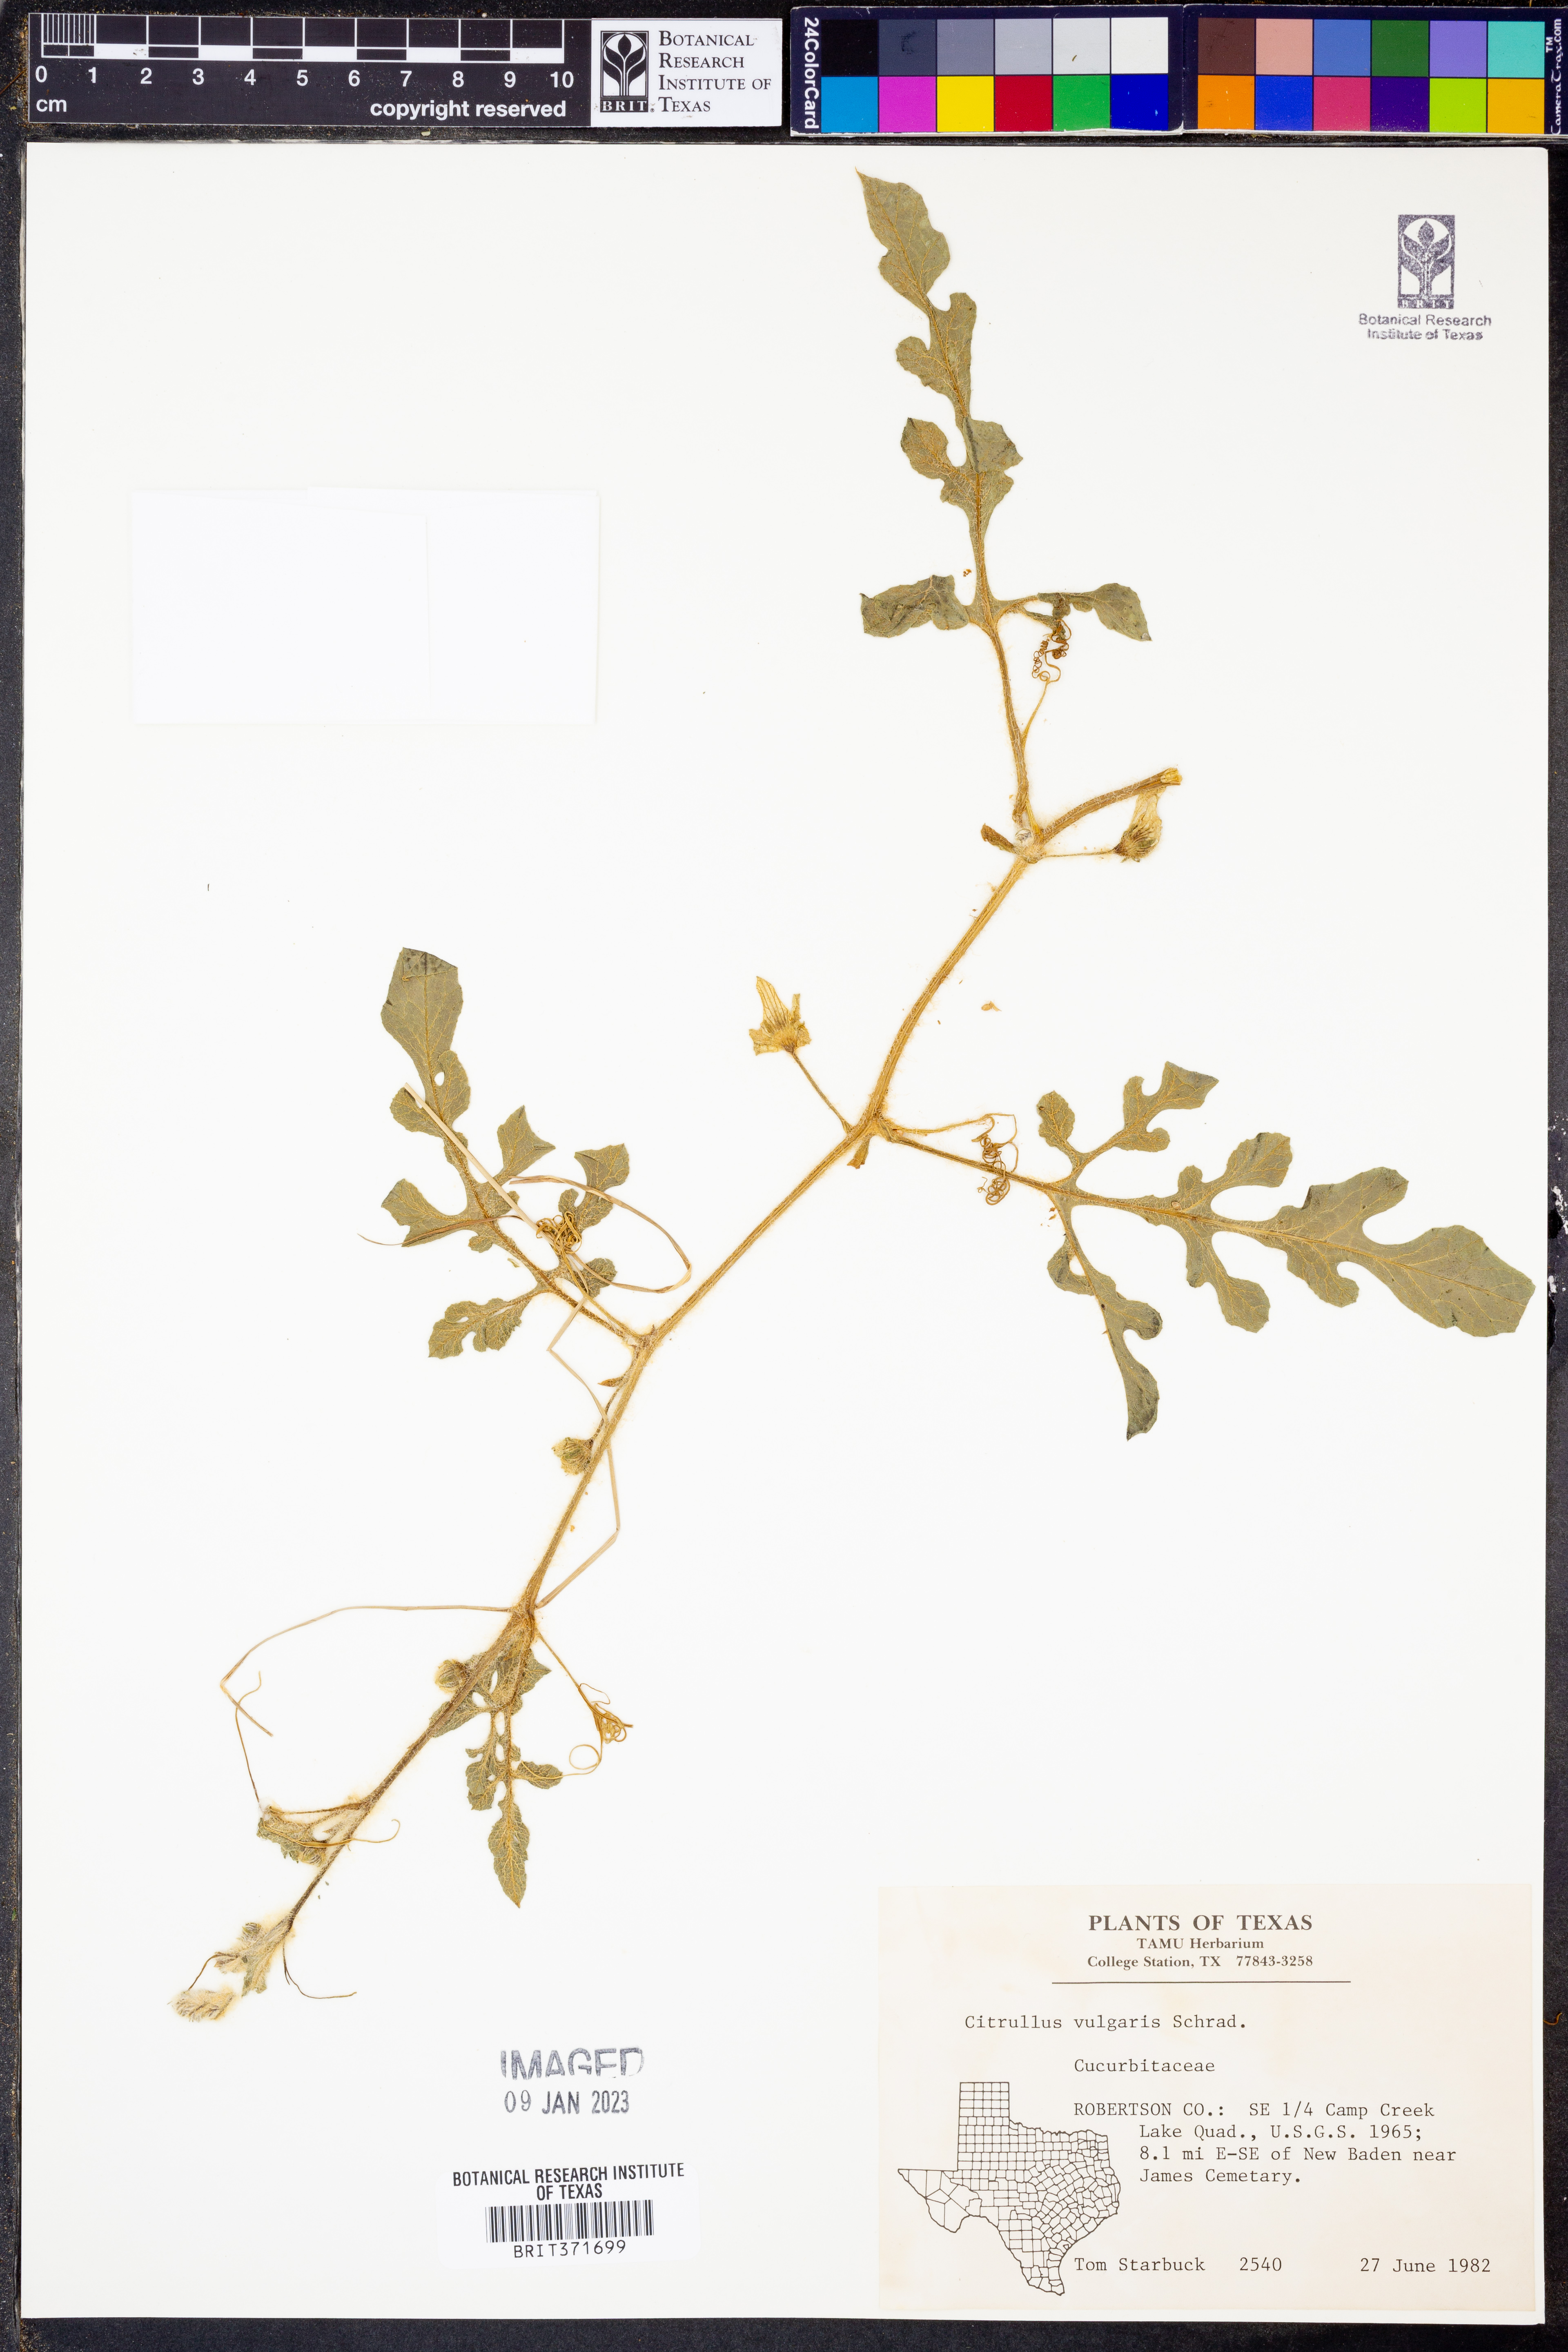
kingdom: Plantae
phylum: Tracheophyta
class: Magnoliopsida
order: Cucurbitales
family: Cucurbitaceae
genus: Citrullus
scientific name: Citrullus lanatus
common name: Watermelon
